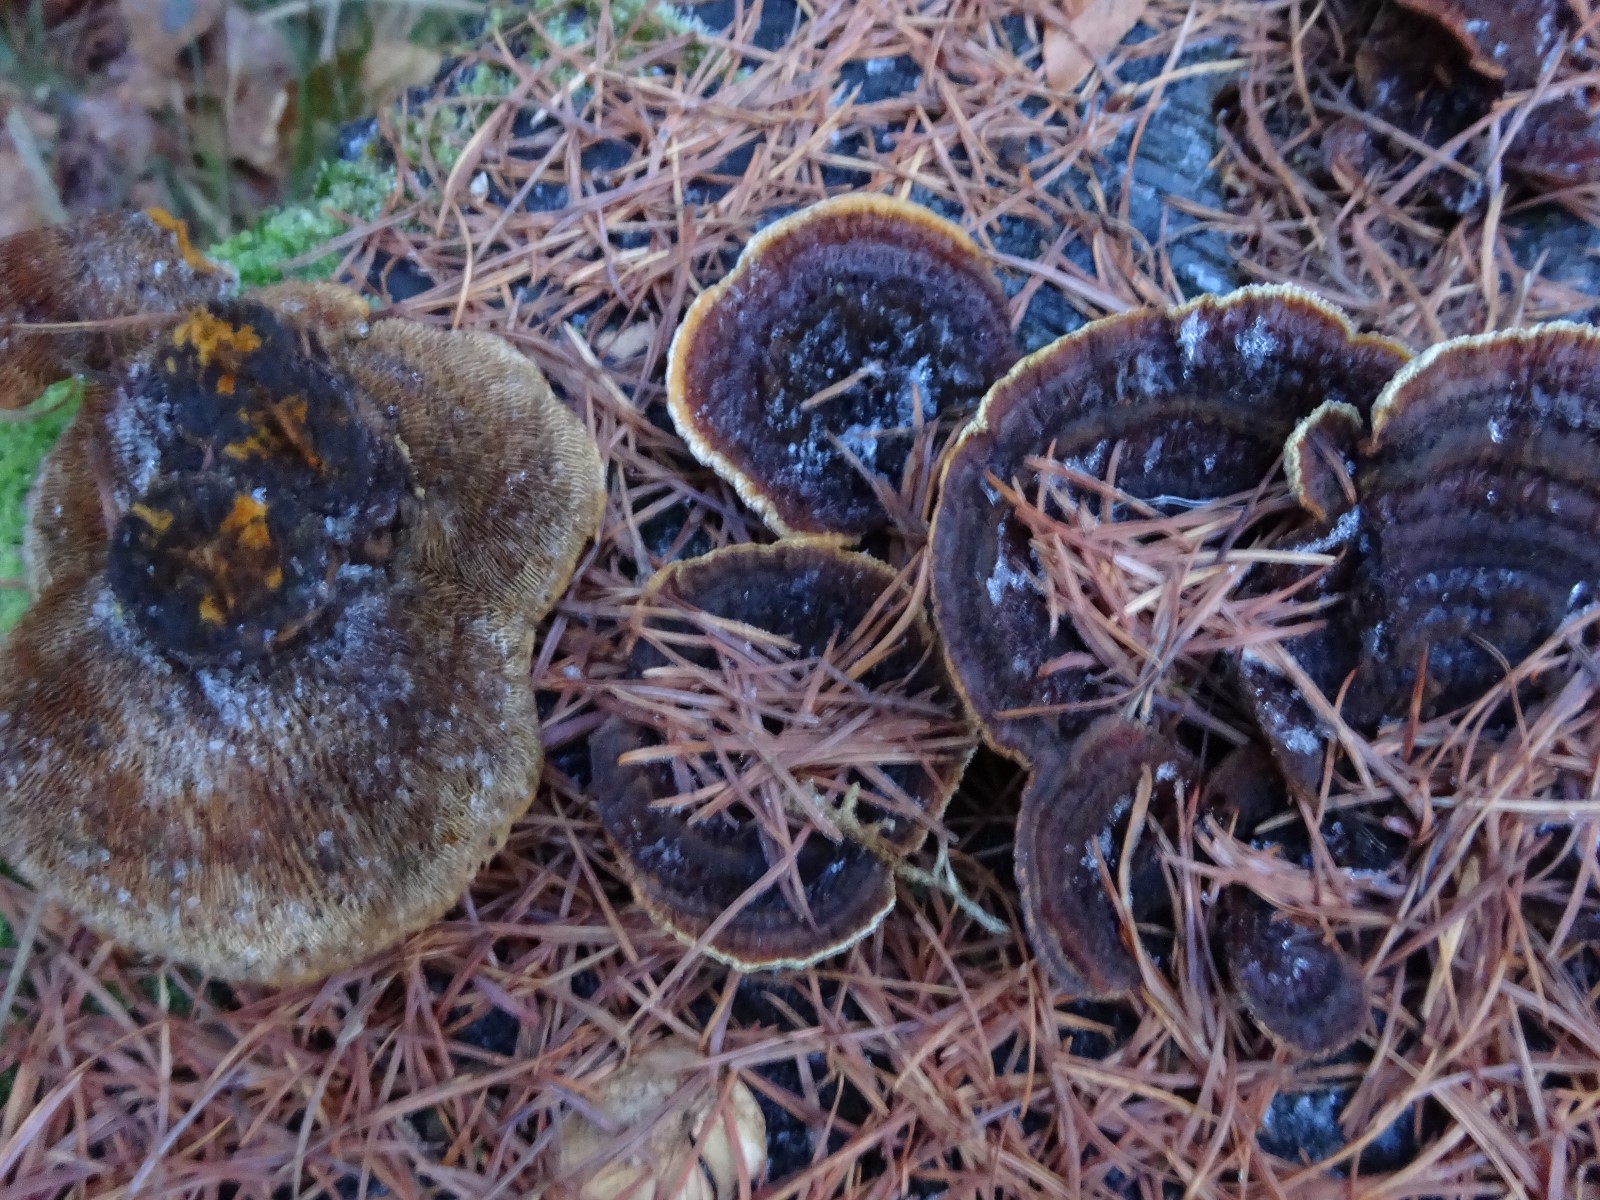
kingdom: Fungi
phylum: Basidiomycota
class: Agaricomycetes
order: Gloeophyllales
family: Gloeophyllaceae
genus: Gloeophyllum
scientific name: Gloeophyllum sepiarium
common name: fyrre-korkhat
